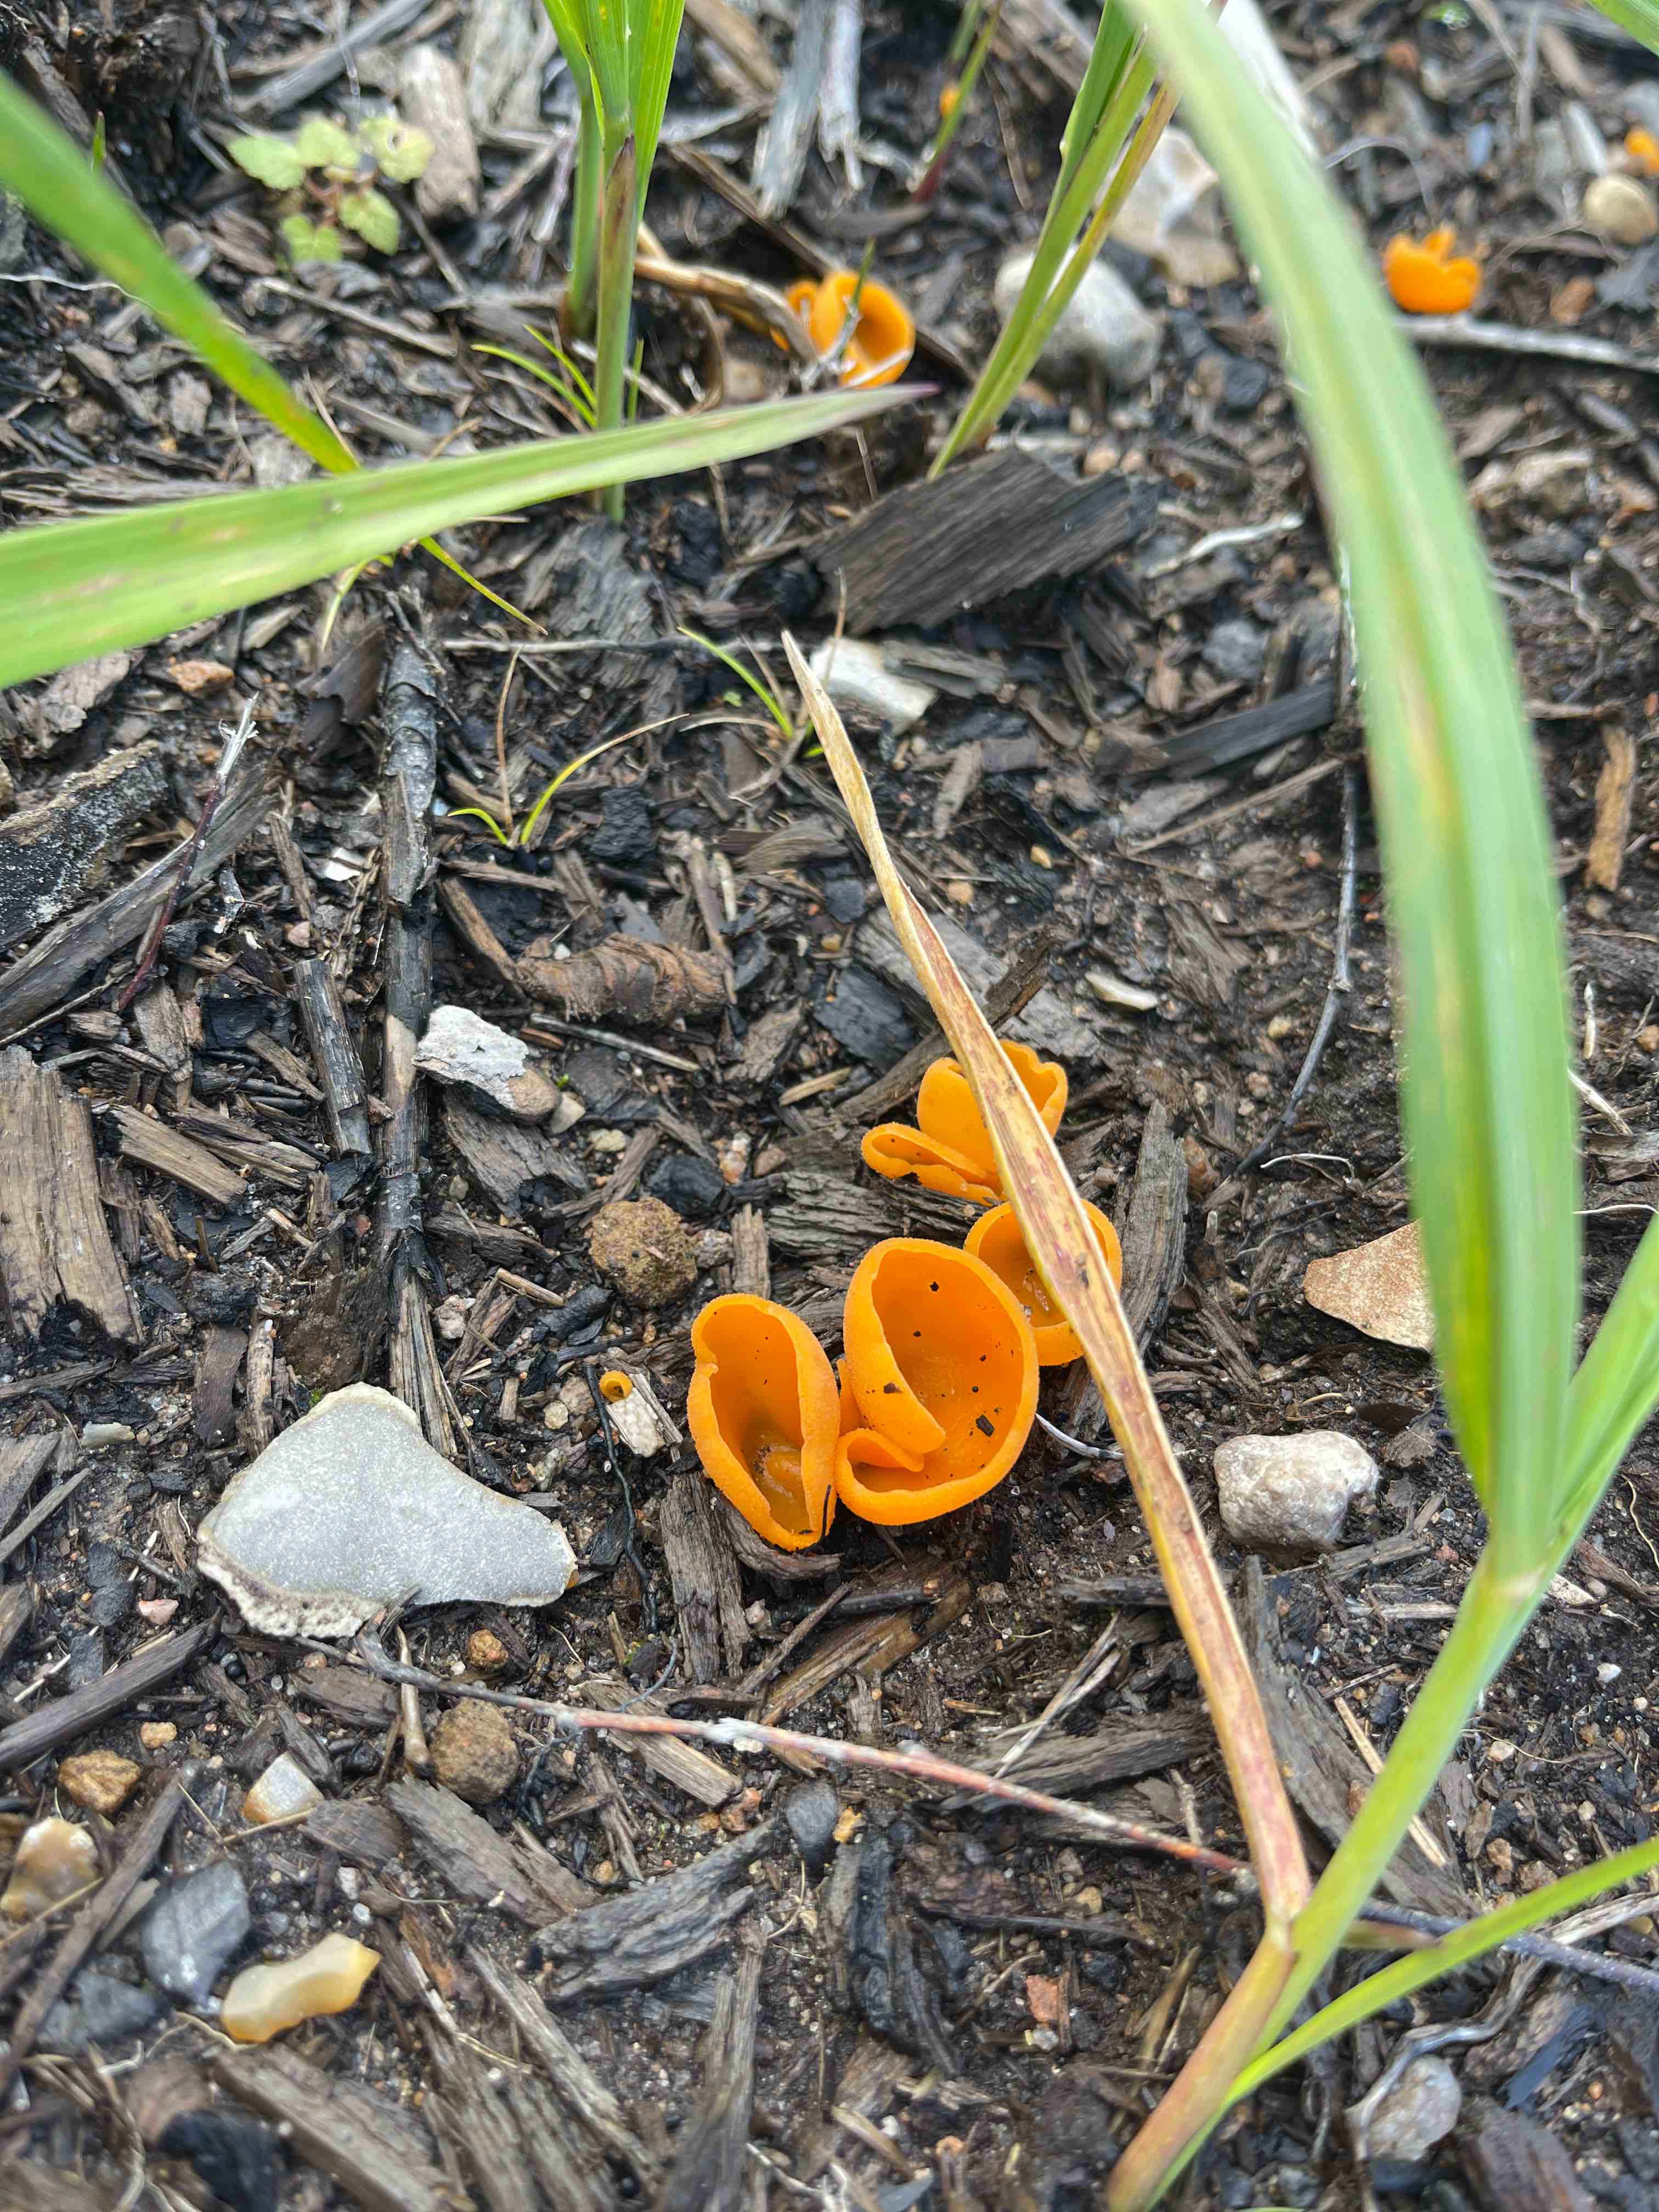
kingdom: Fungi
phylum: Ascomycota
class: Pezizomycetes
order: Pezizales
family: Pyronemataceae
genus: Aleuria
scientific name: Aleuria aurantia
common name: almindelig orangebæger
